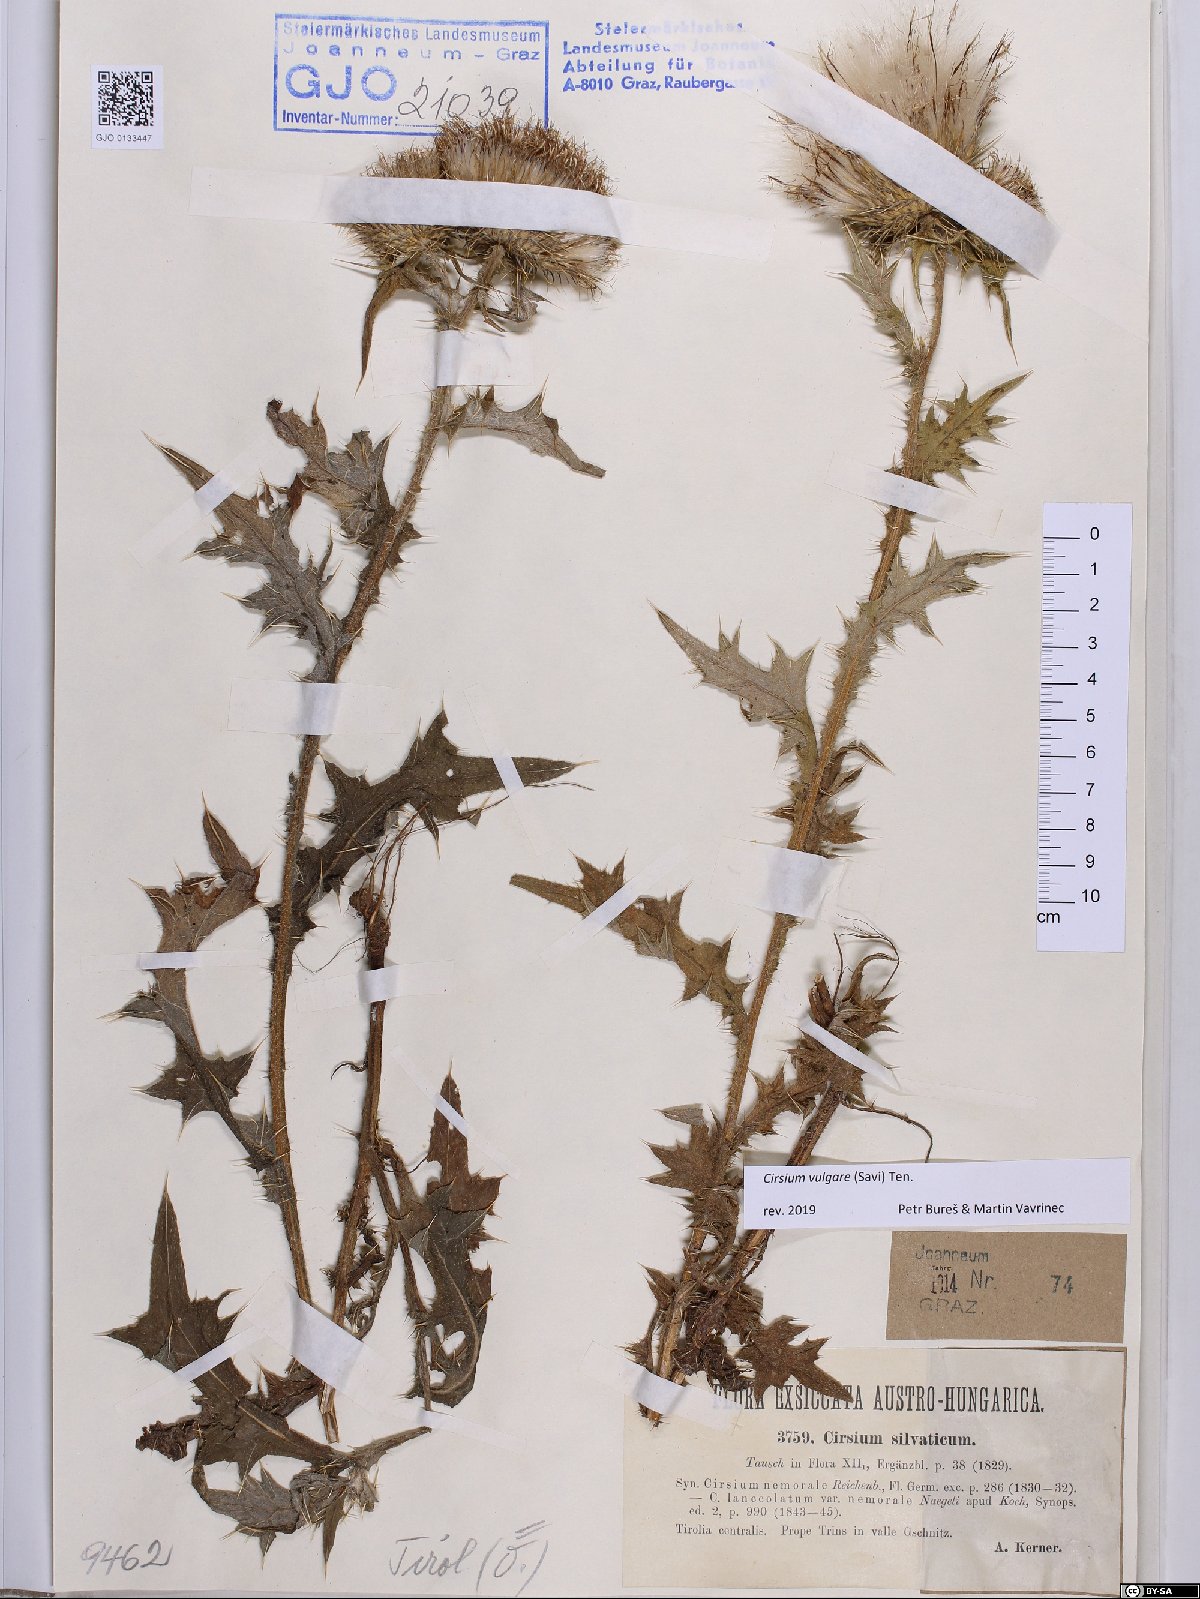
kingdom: Plantae
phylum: Tracheophyta
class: Magnoliopsida
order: Asterales
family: Asteraceae
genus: Cirsium
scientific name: Cirsium vulgare
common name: Bull thistle
